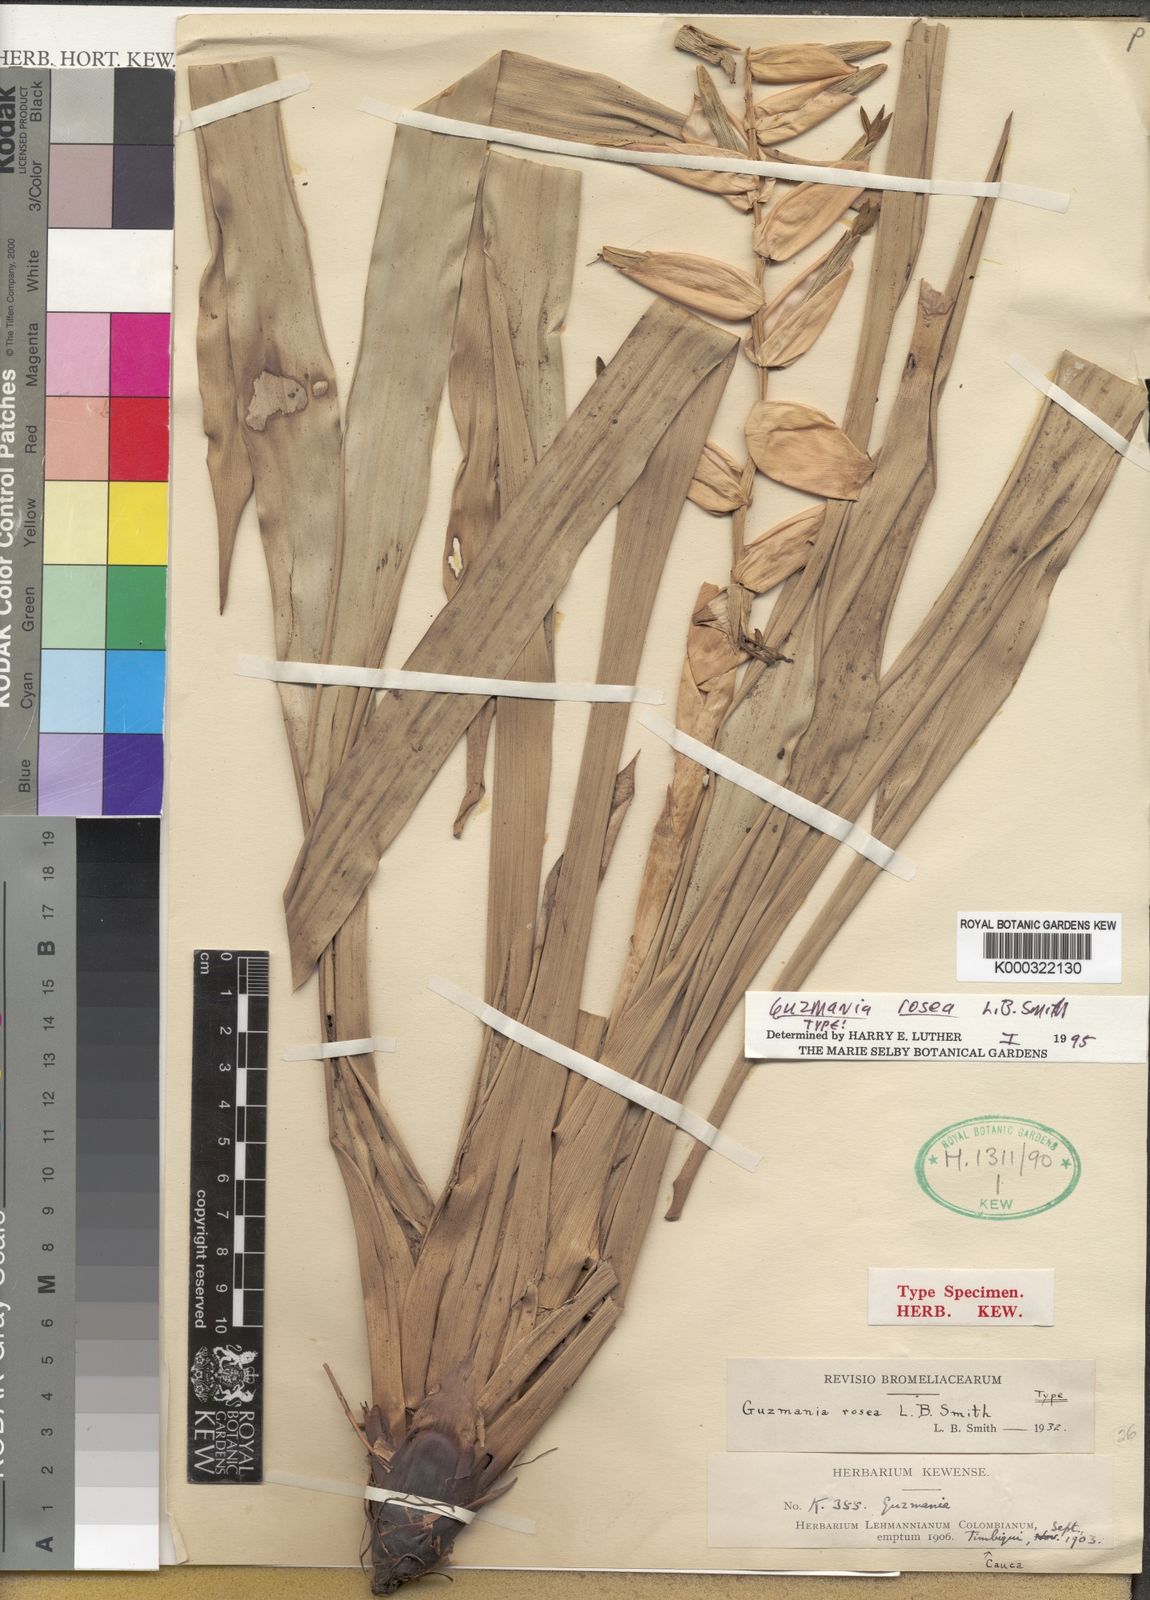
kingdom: Plantae
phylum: Tracheophyta
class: Liliopsida
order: Poales
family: Bromeliaceae
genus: Guzmania
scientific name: Guzmania sprucei
